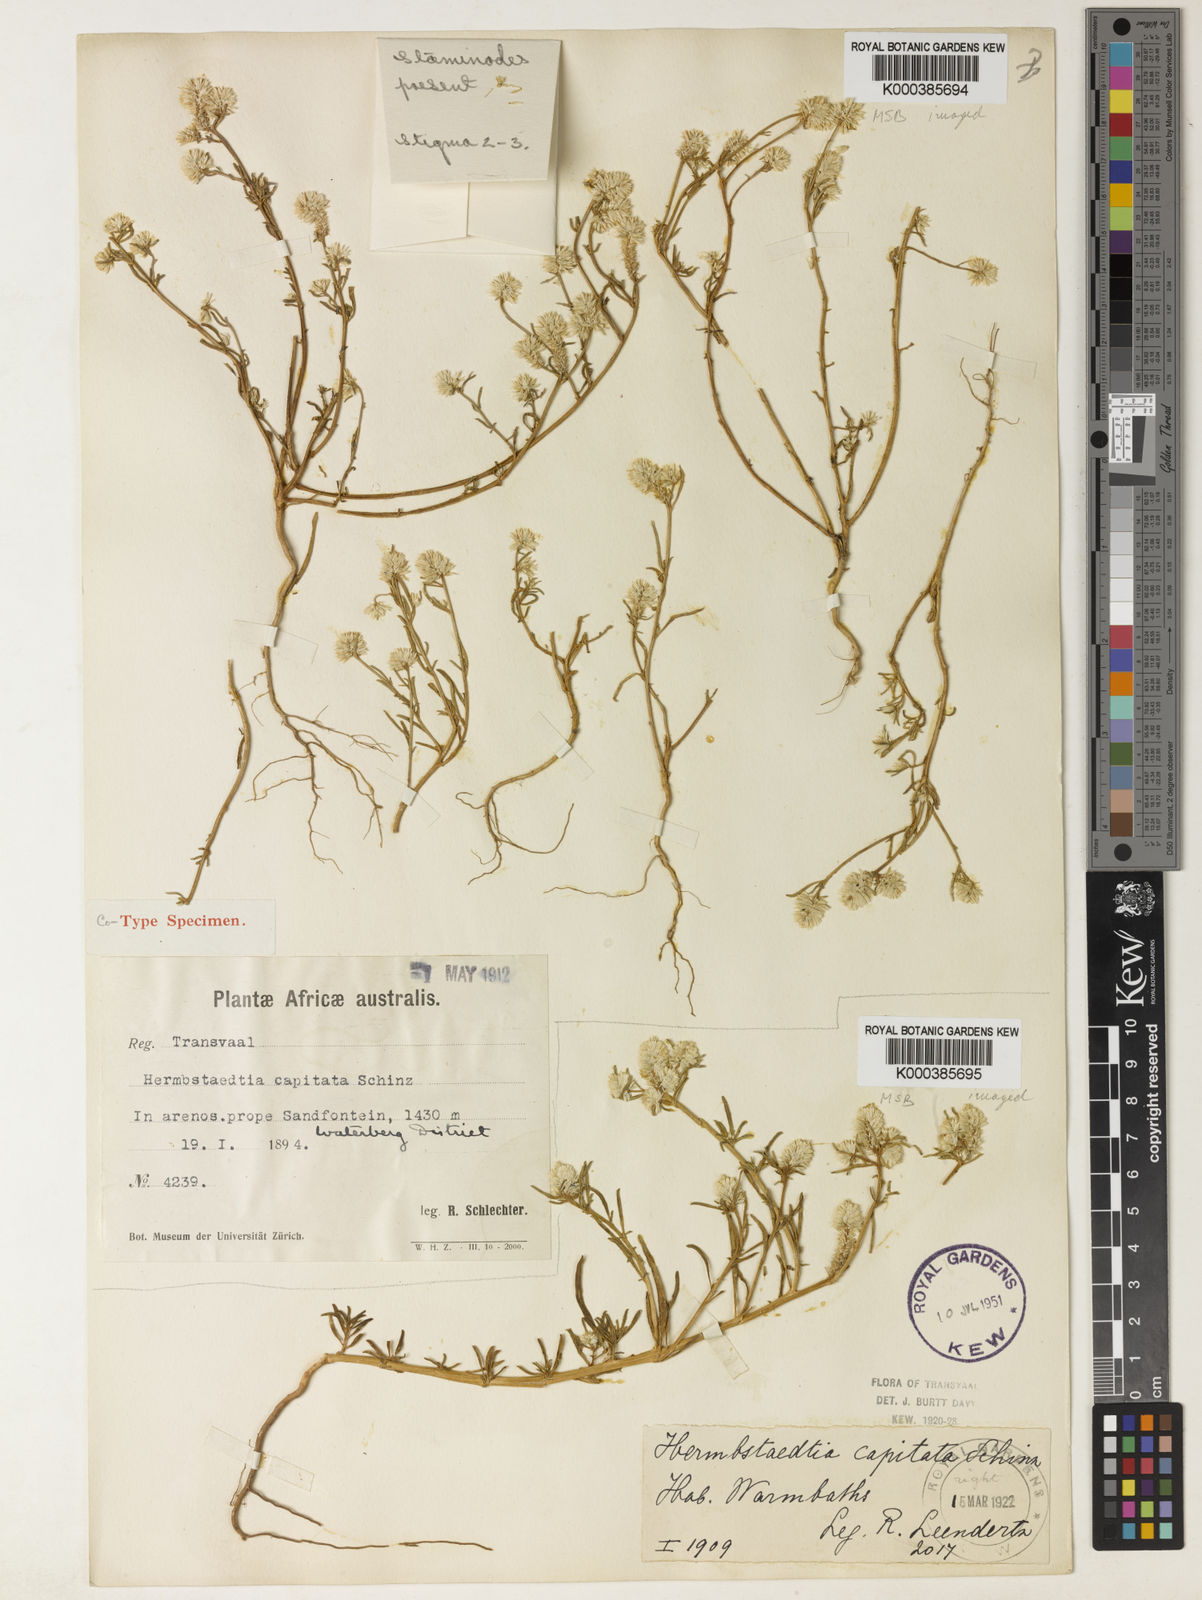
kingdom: Plantae
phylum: Tracheophyta
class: Magnoliopsida
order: Caryophyllales
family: Amaranthaceae
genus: Hermbstaedtia
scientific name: Hermbstaedtia capitata
